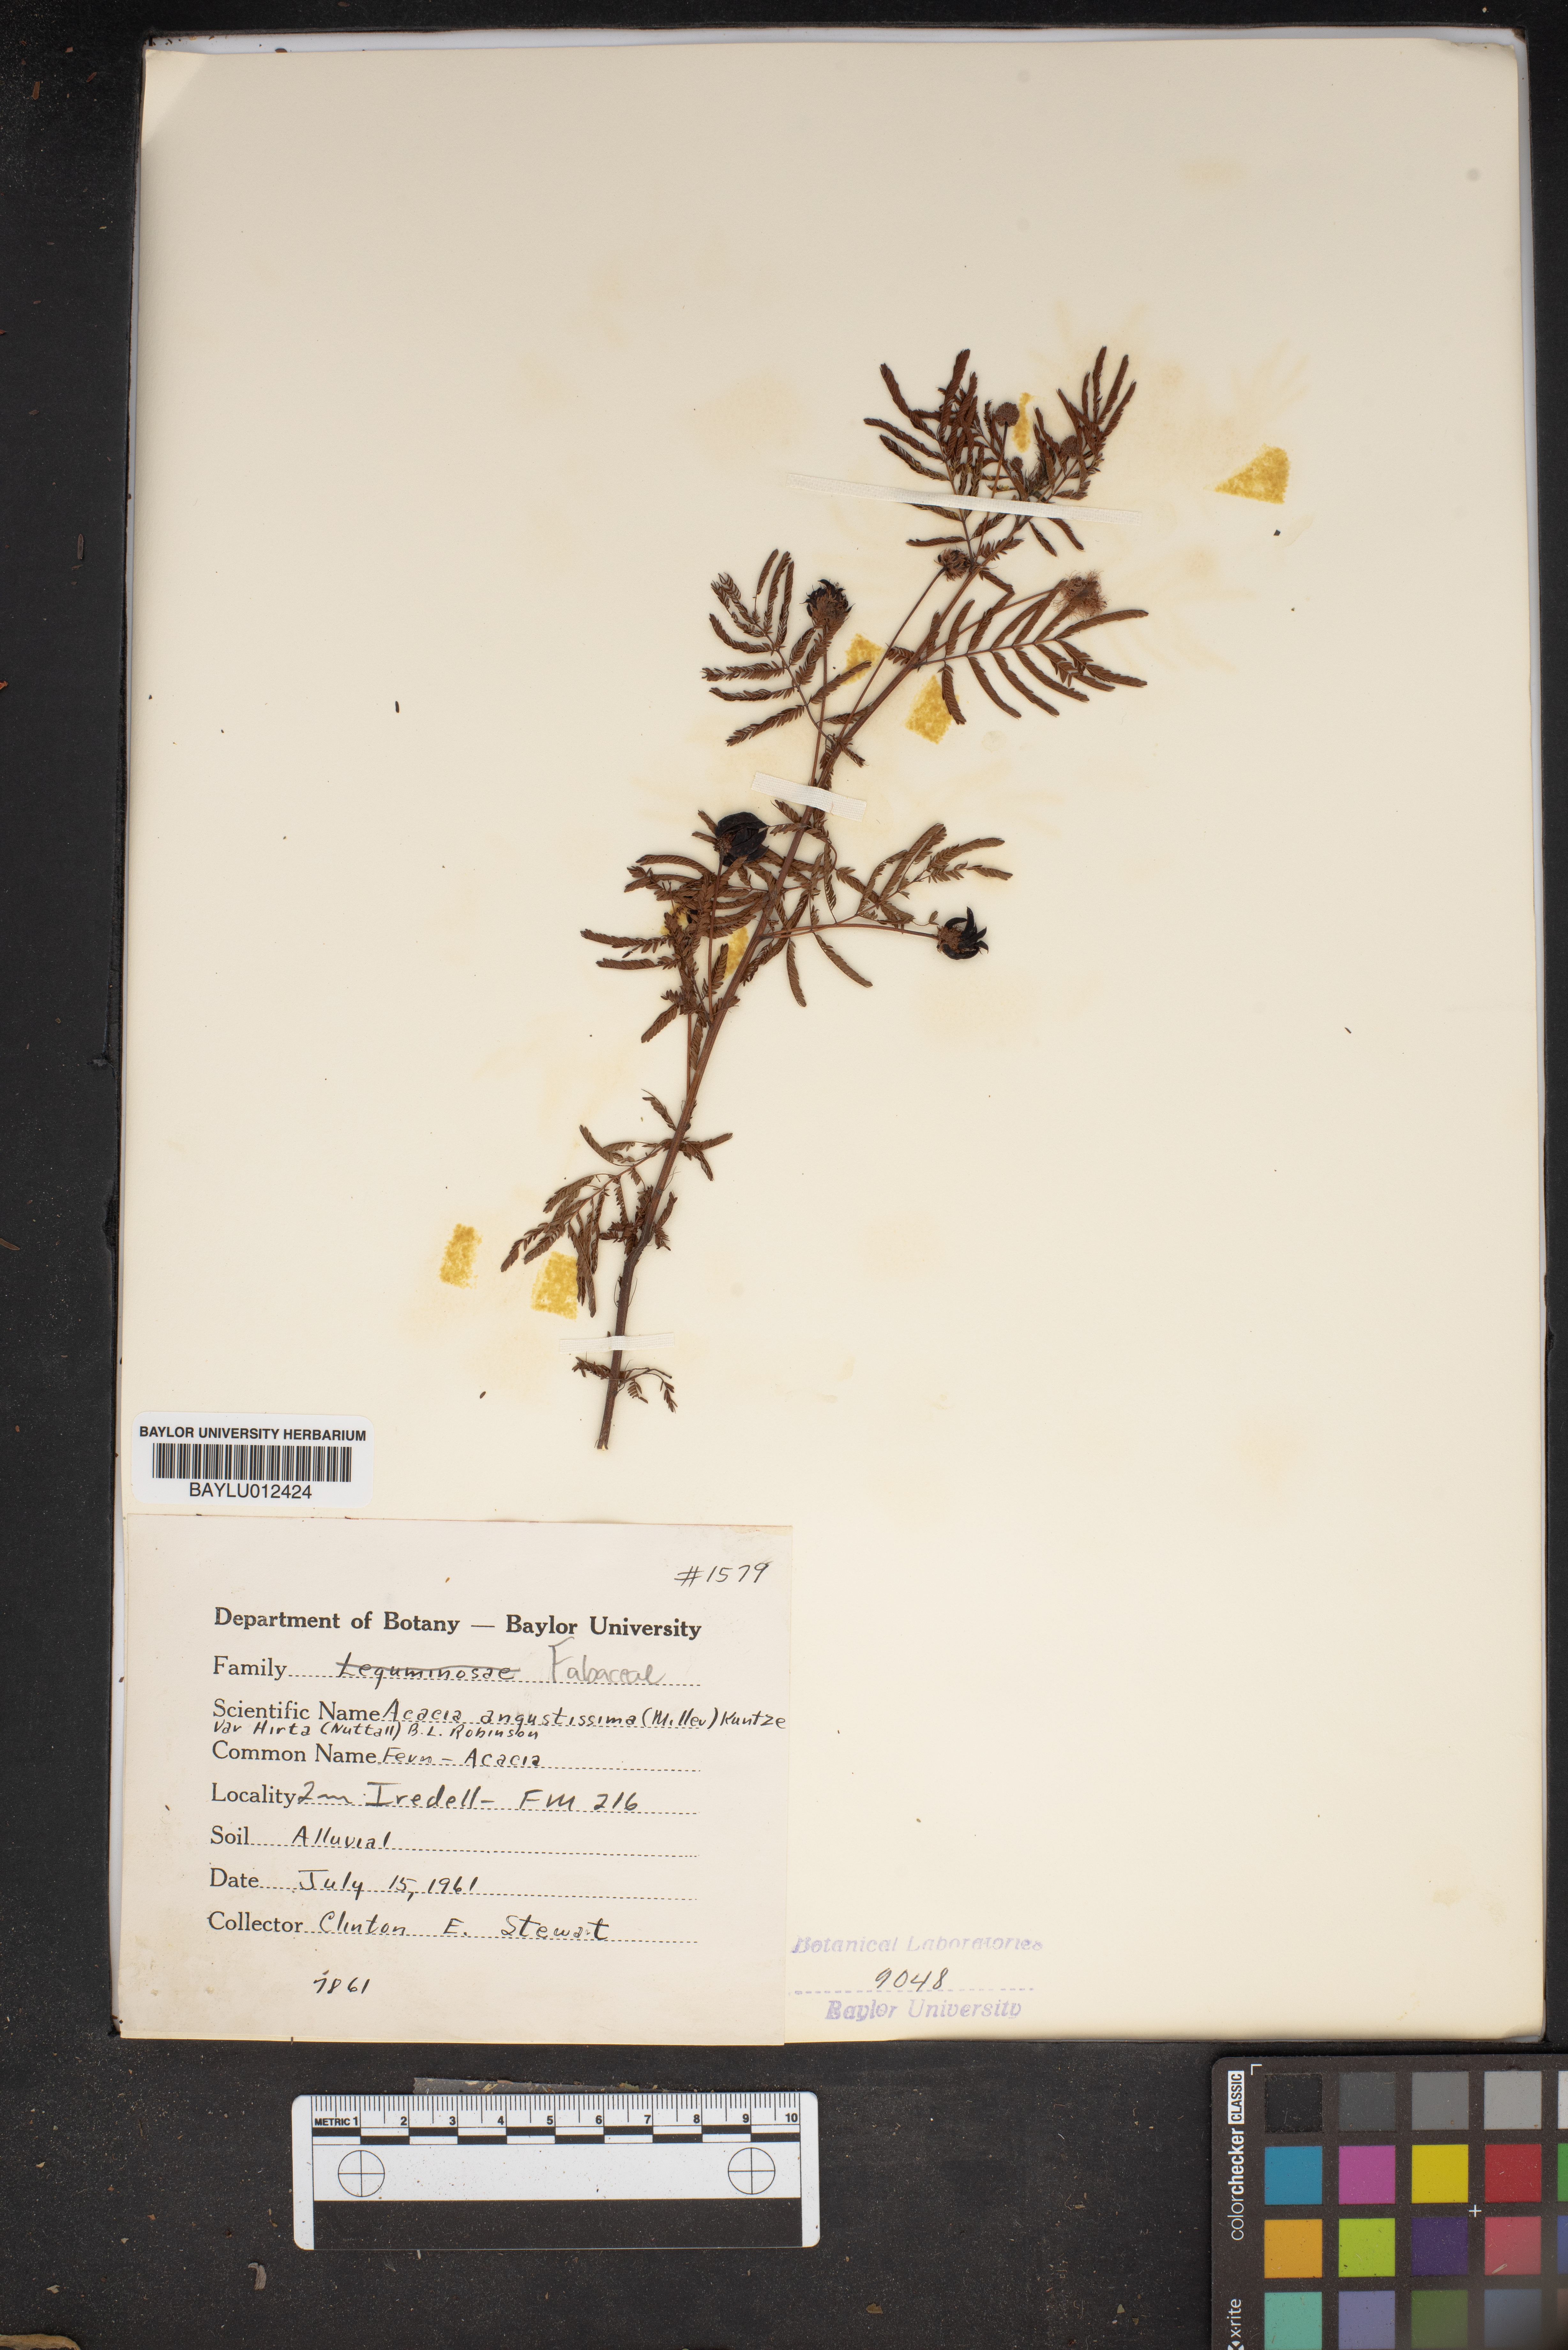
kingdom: Plantae
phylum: Tracheophyta
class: Magnoliopsida
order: Fabales
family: Fabaceae
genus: Acaciella
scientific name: Acaciella angustissima
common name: Prairie acacia
